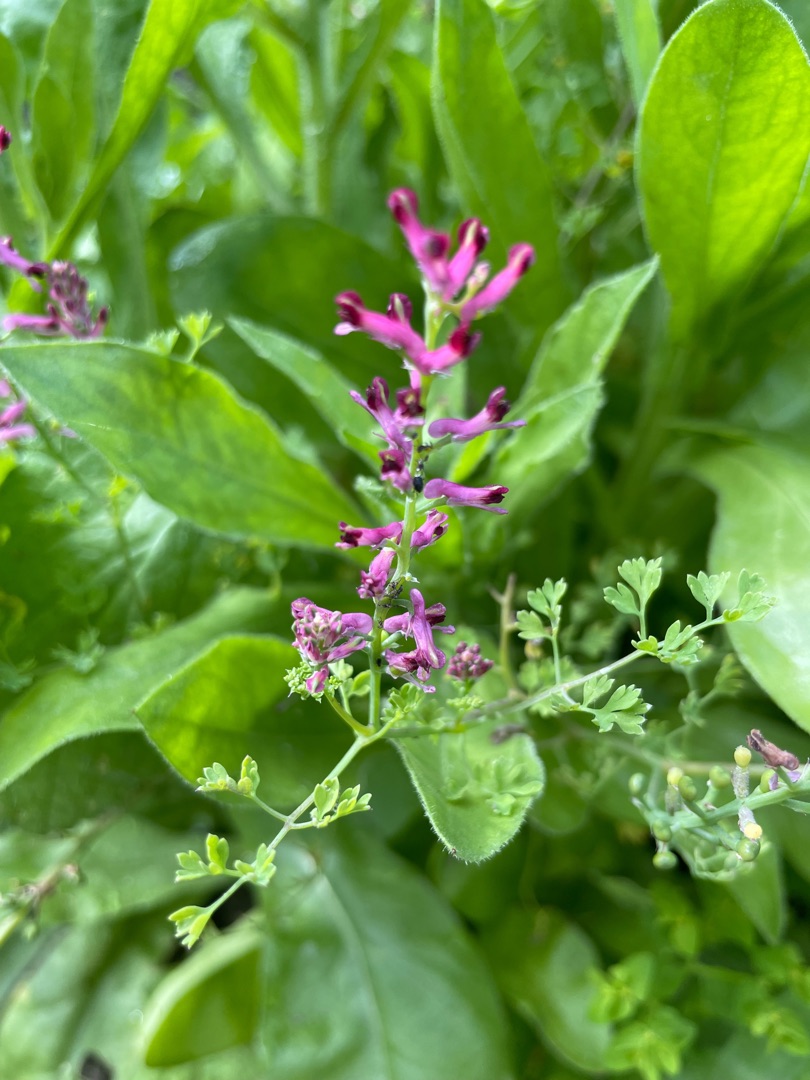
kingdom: Plantae
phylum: Tracheophyta
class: Magnoliopsida
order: Ranunculales
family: Papaveraceae
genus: Fumaria
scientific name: Fumaria officinalis
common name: Læge-jordrøg
